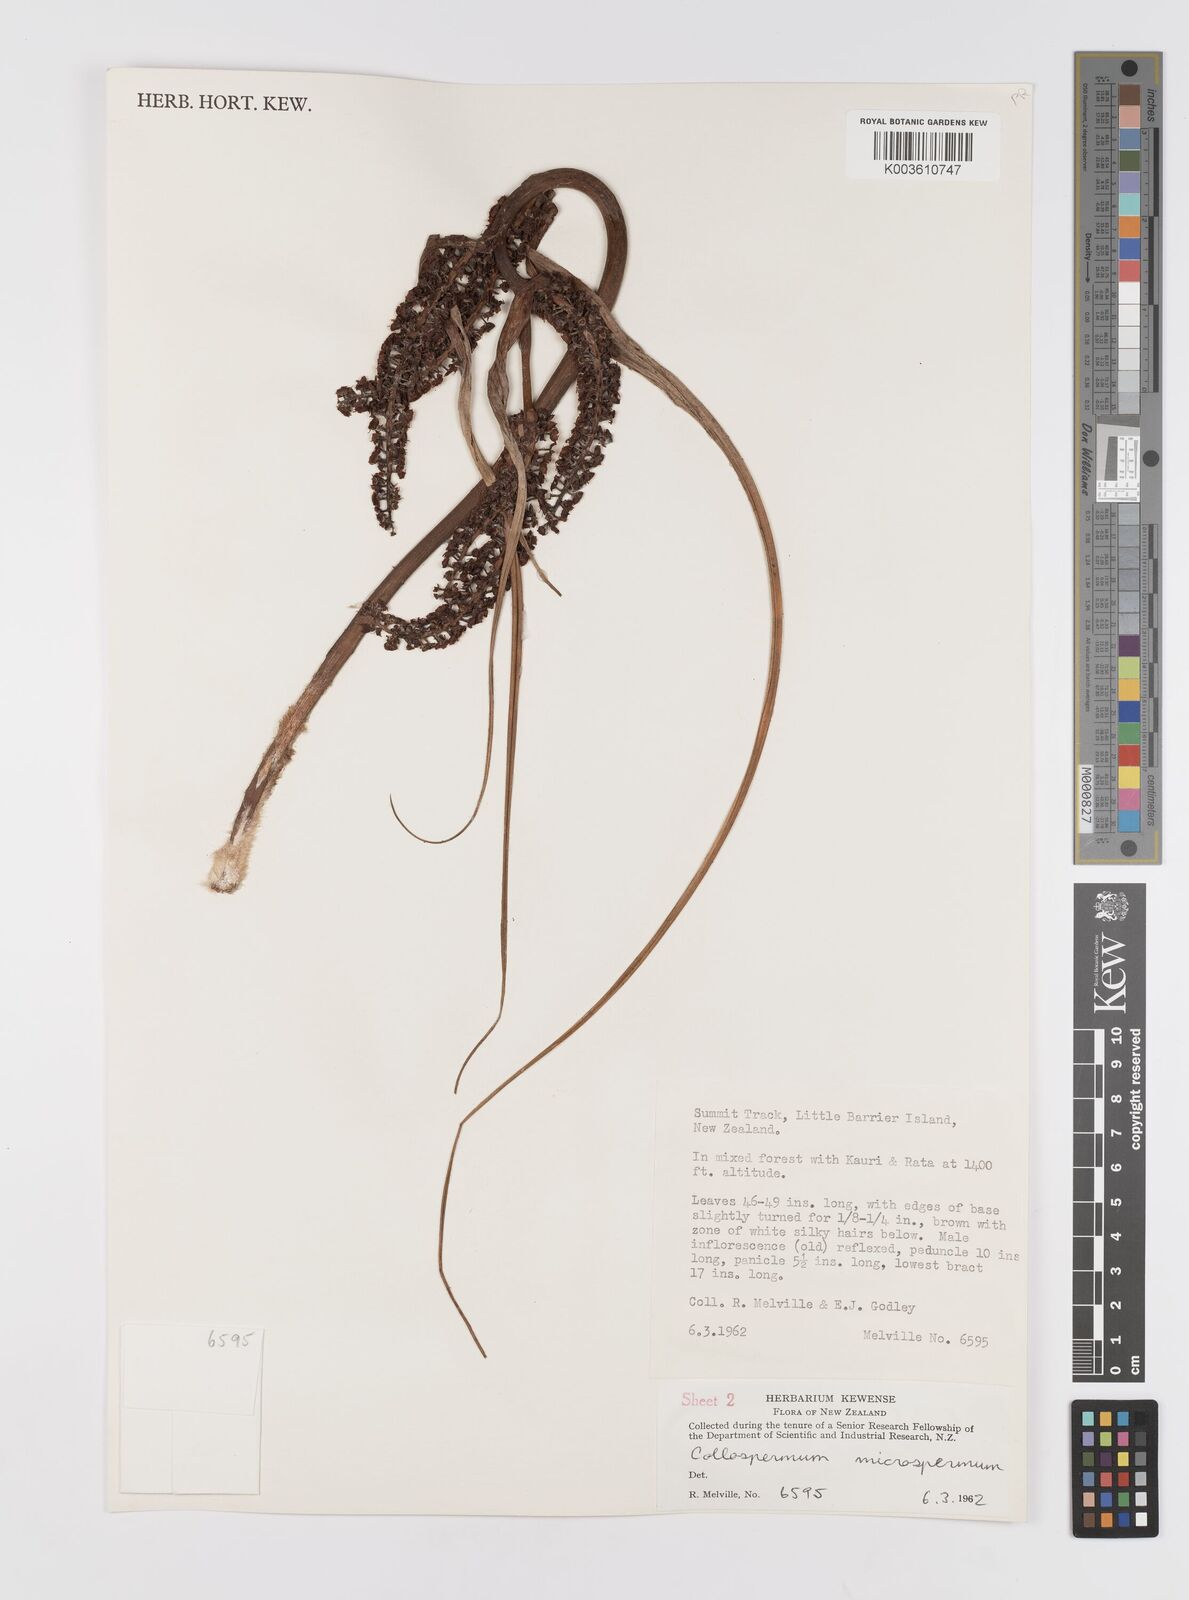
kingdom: Plantae
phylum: Tracheophyta
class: Liliopsida
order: Asparagales
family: Asteliaceae
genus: Astelia
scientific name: Astelia microsperma
